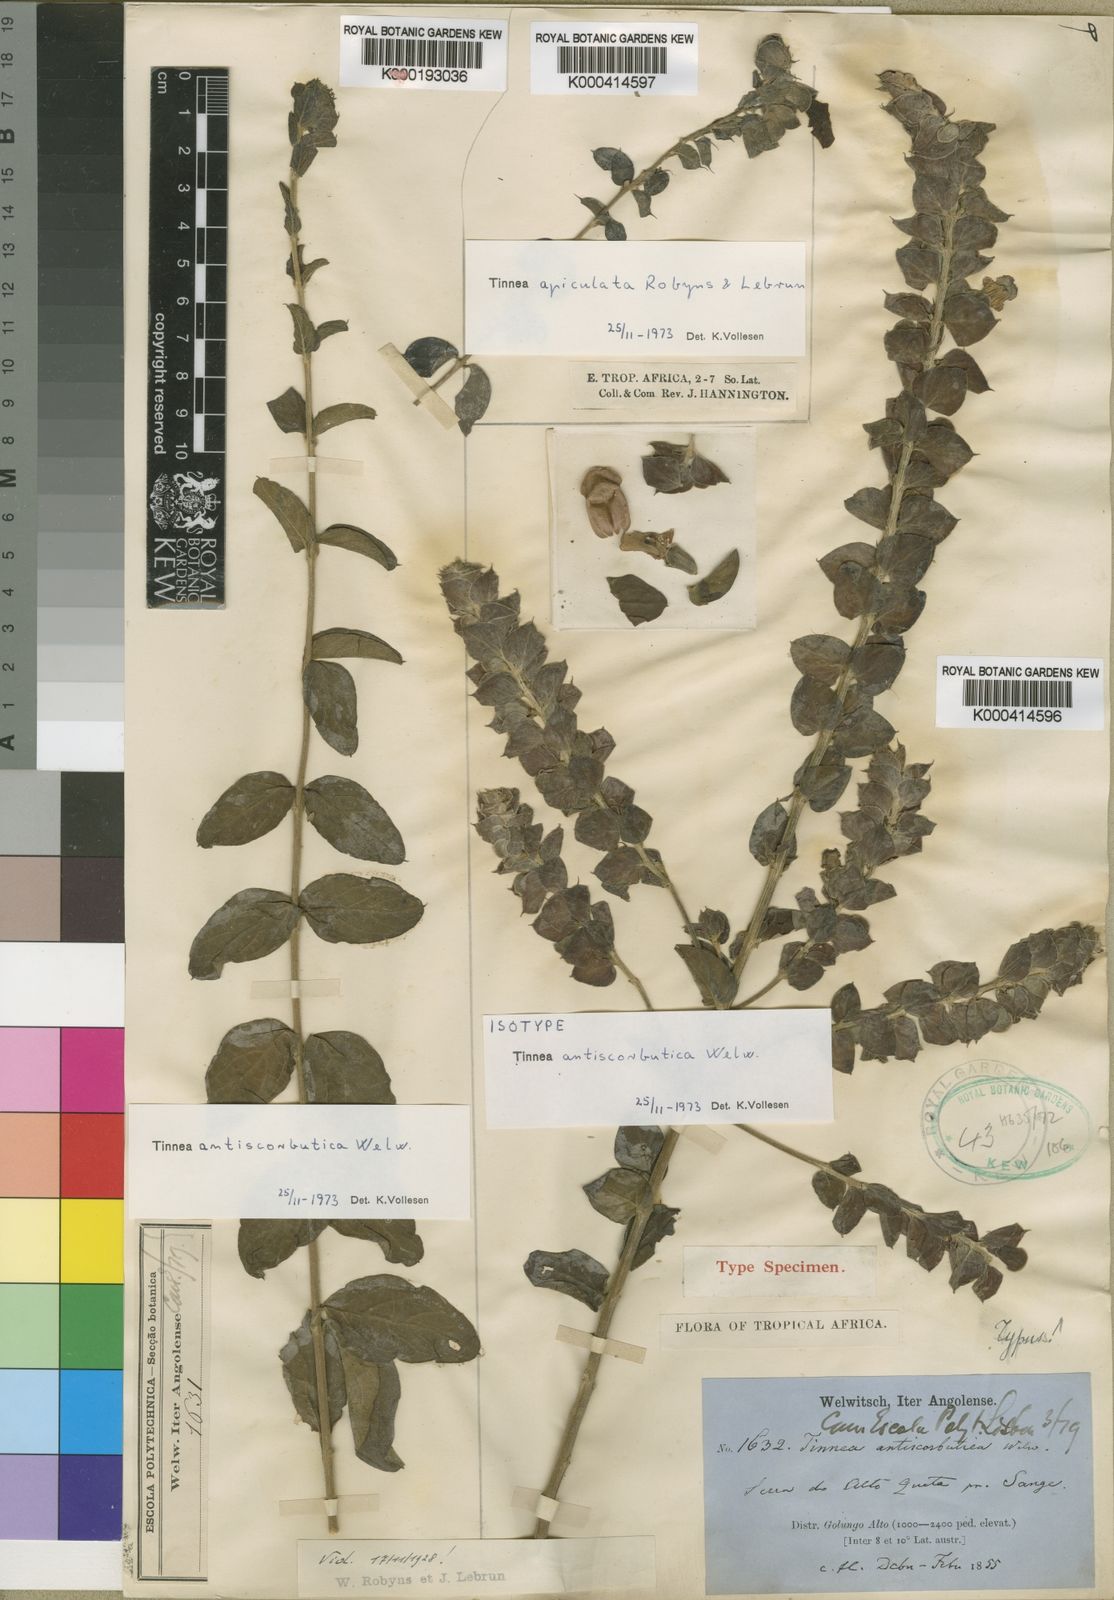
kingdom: Plantae
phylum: Tracheophyta
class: Magnoliopsida
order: Lamiales
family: Lamiaceae
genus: Tinnea
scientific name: Tinnea antiscorbutica
